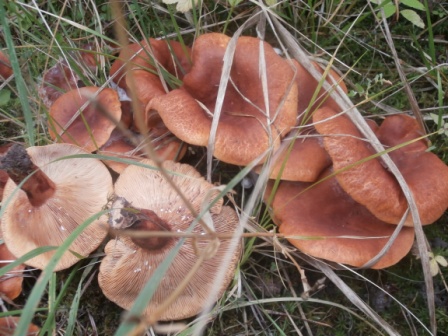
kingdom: Fungi
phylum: Basidiomycota
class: Agaricomycetes
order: Russulales
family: Russulaceae
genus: Lactarius
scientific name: Lactarius fulvissimus
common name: ræve-mælkehat
